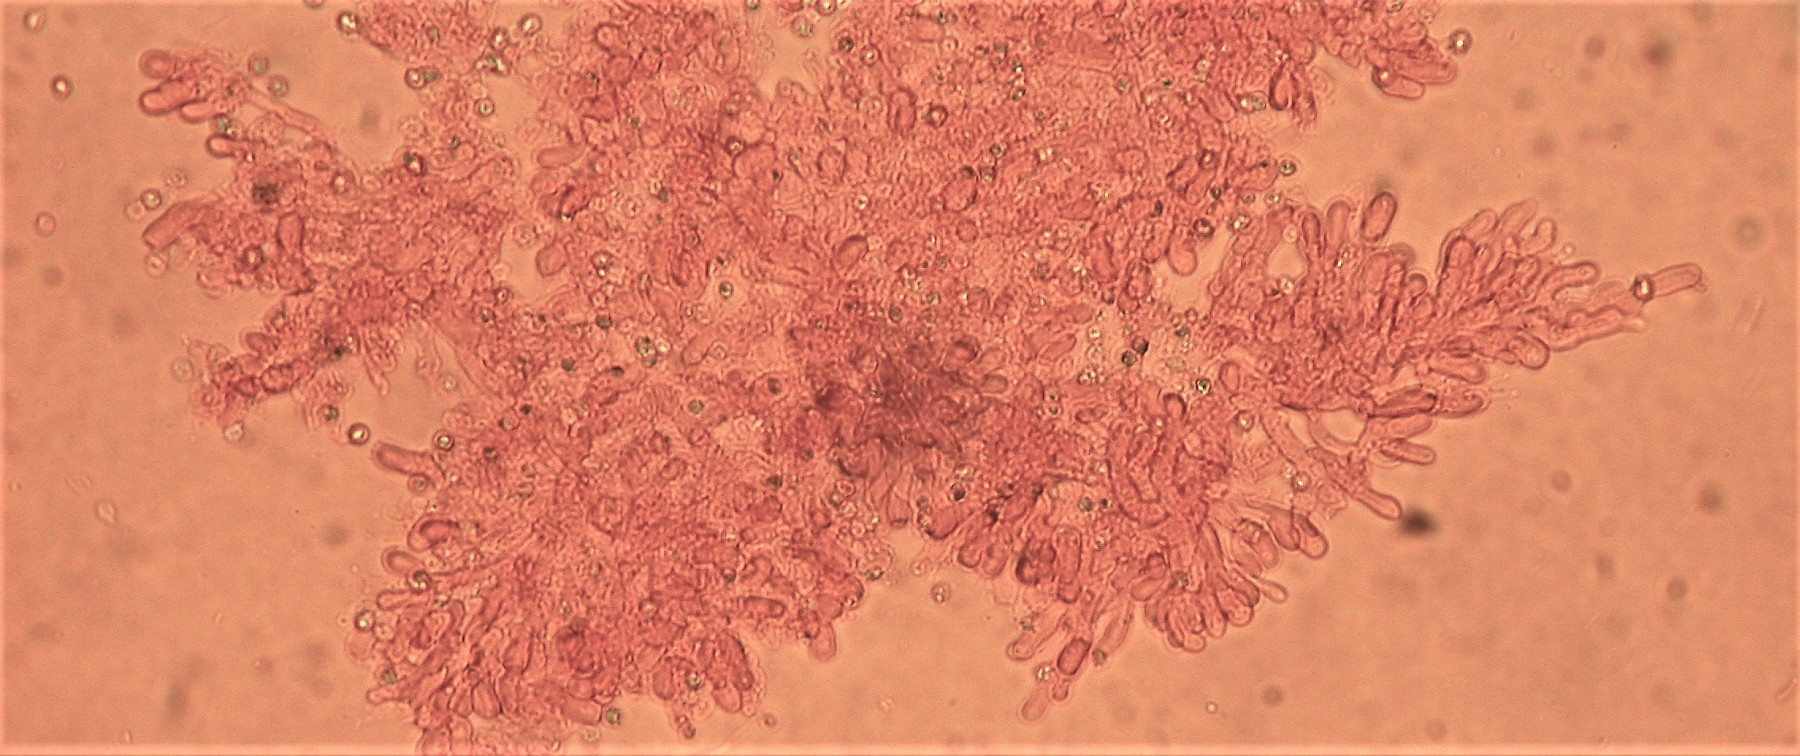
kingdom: Fungi
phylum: Basidiomycota
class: Agaricomycetes
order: Corticiales
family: Corticiaceae
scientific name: Corticiaceae
